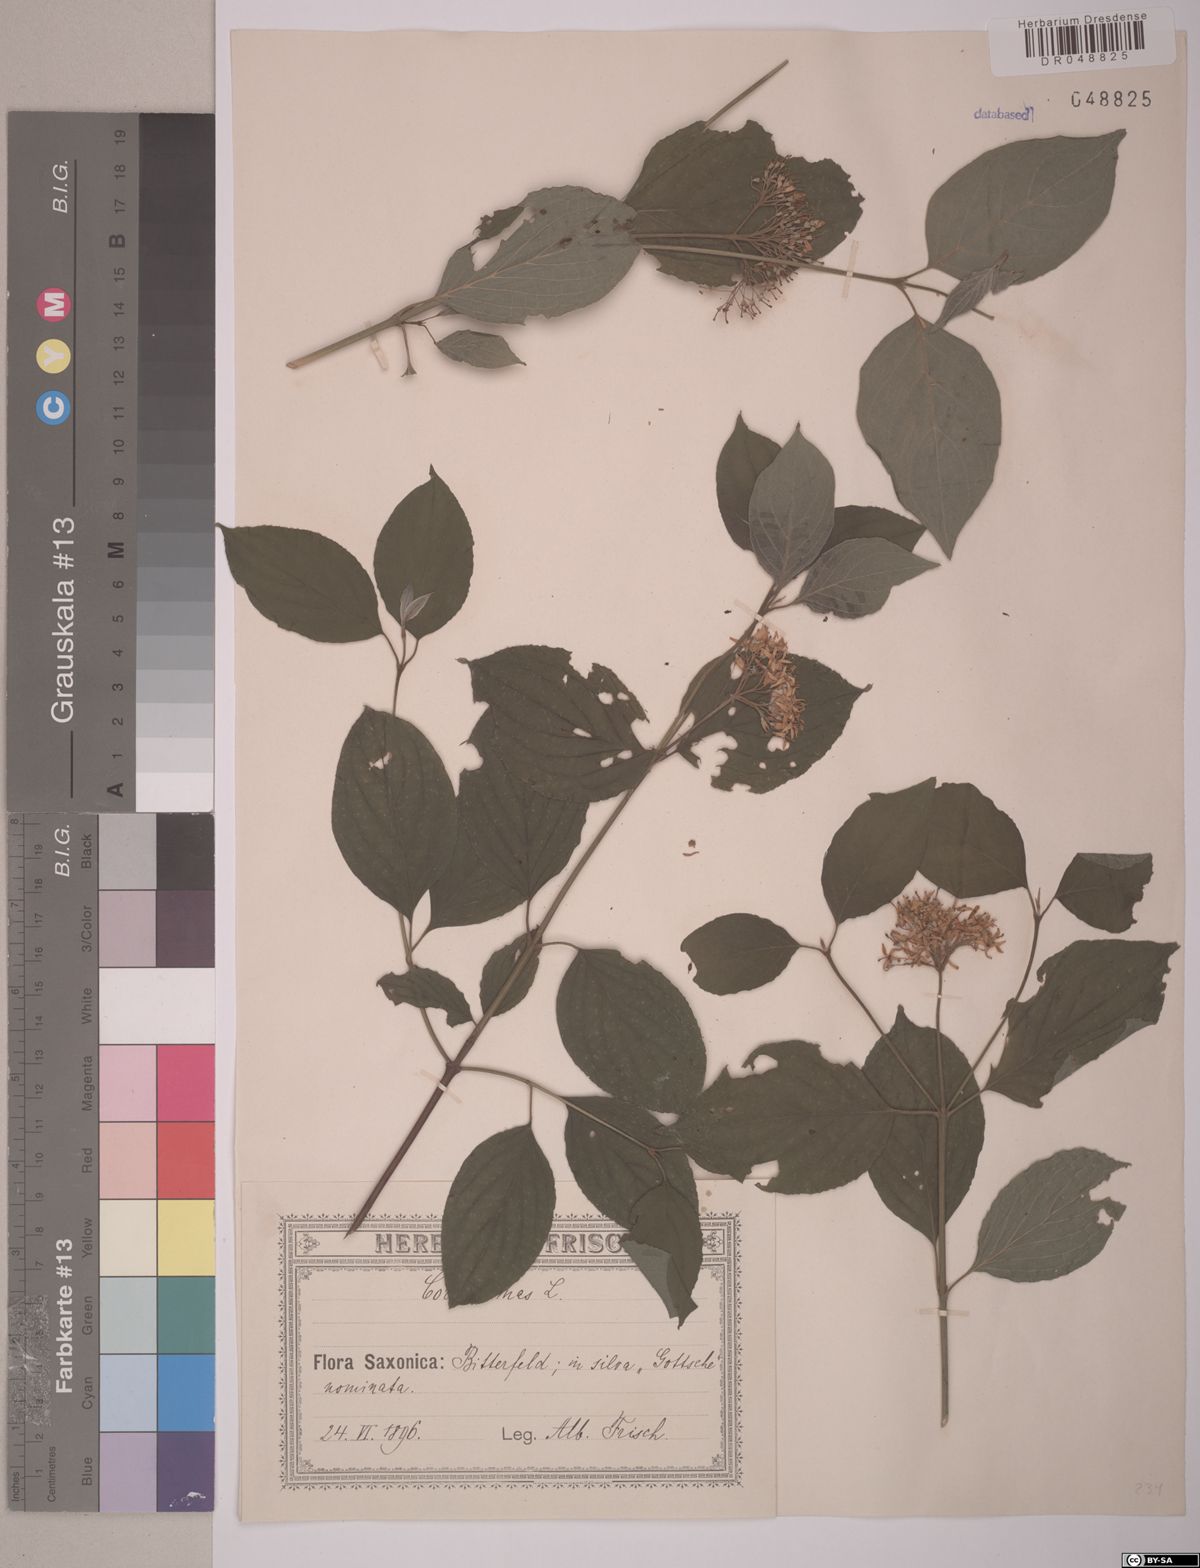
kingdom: Plantae
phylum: Tracheophyta
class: Magnoliopsida
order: Cornales
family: Cornaceae
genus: Cornus
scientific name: Cornus mas
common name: Cornelian-cherry
